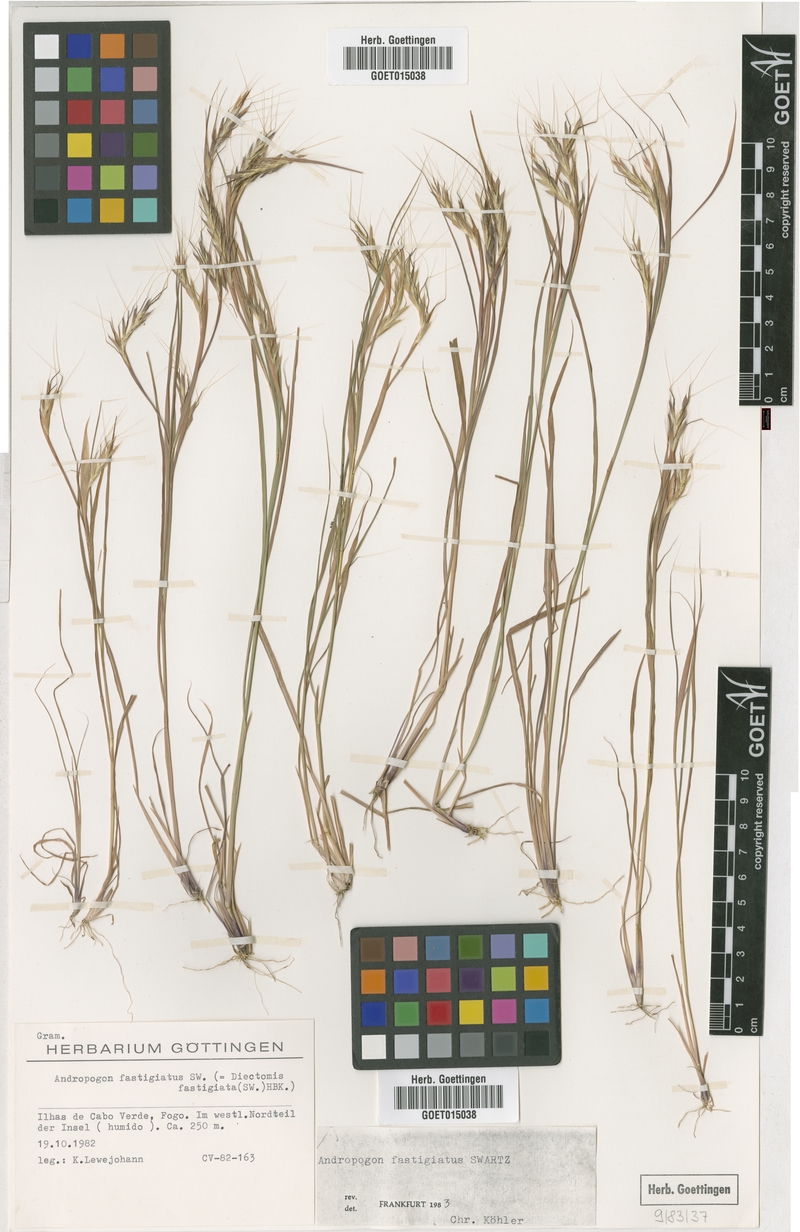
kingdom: Plantae
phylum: Tracheophyta
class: Liliopsida
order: Poales
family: Poaceae
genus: Diectomis
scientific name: Diectomis fastigiata
